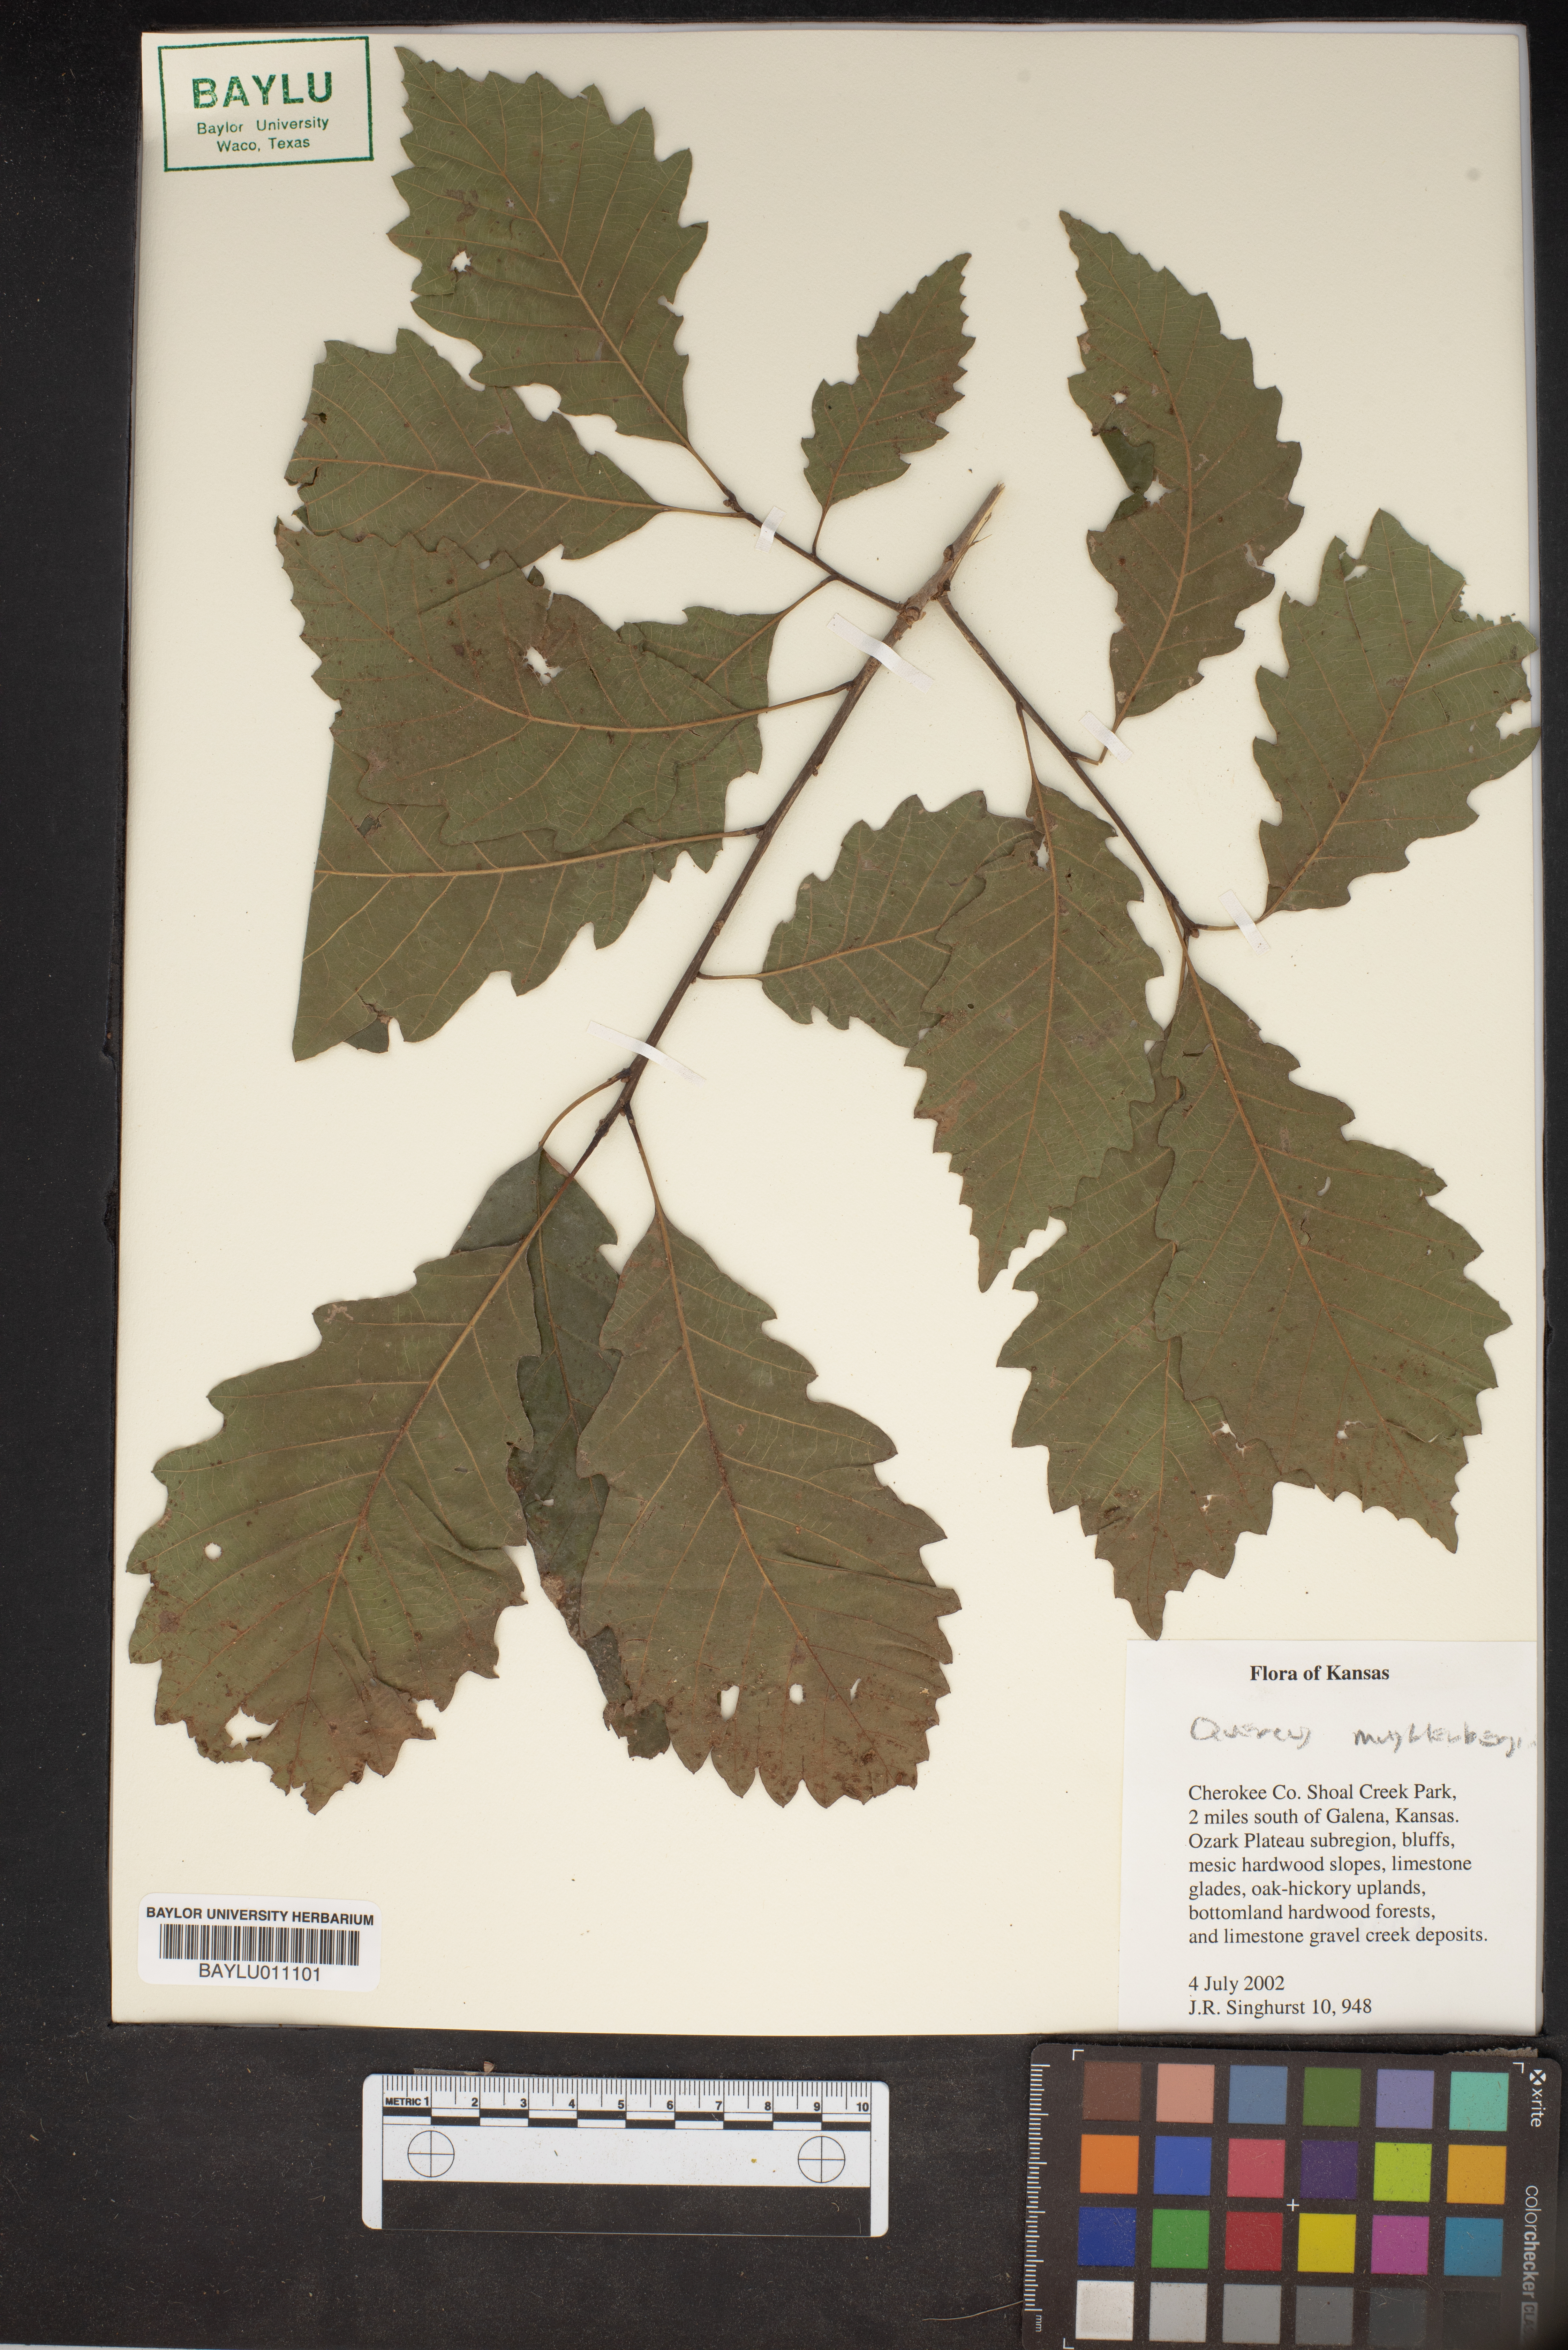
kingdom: Plantae
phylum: Tracheophyta
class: Magnoliopsida
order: Fagales
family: Fagaceae
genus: Quercus
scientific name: Quercus muehlenbergii
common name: Chinkapin oak
